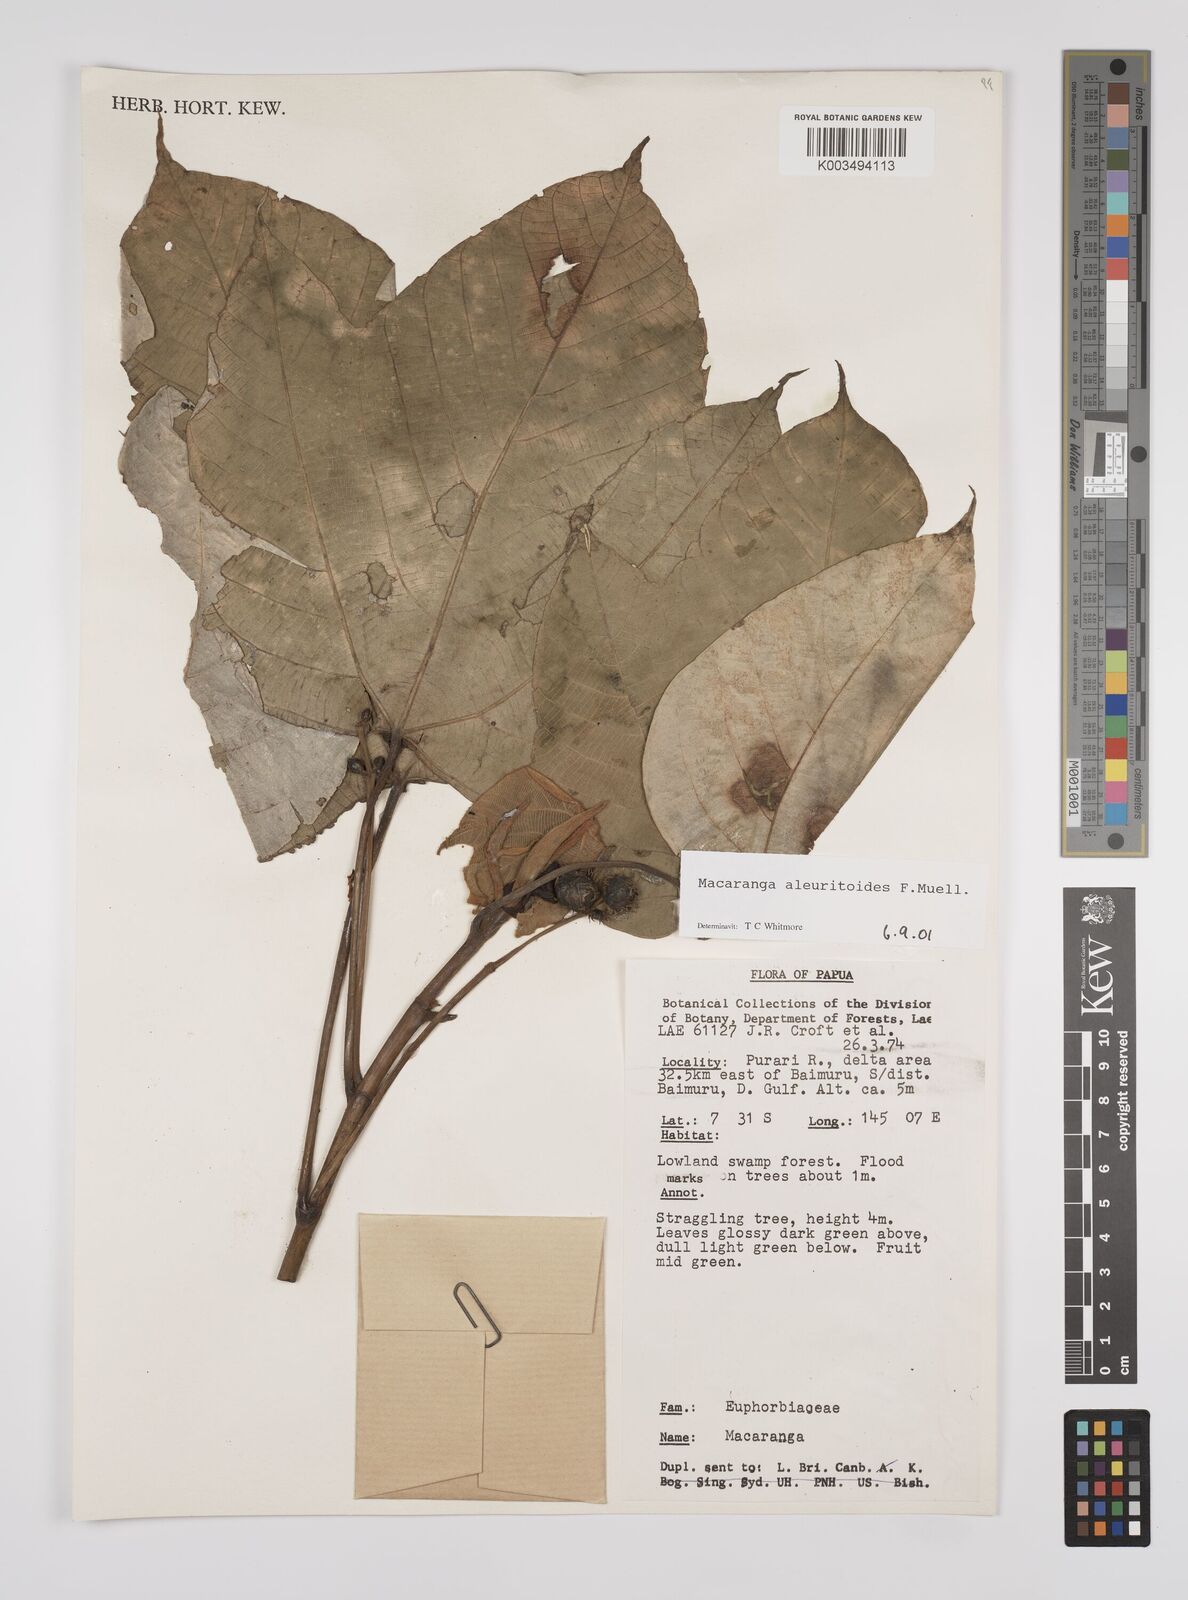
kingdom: Plantae
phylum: Tracheophyta
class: Magnoliopsida
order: Malpighiales
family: Euphorbiaceae
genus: Macaranga
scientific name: Macaranga aleuritoides
